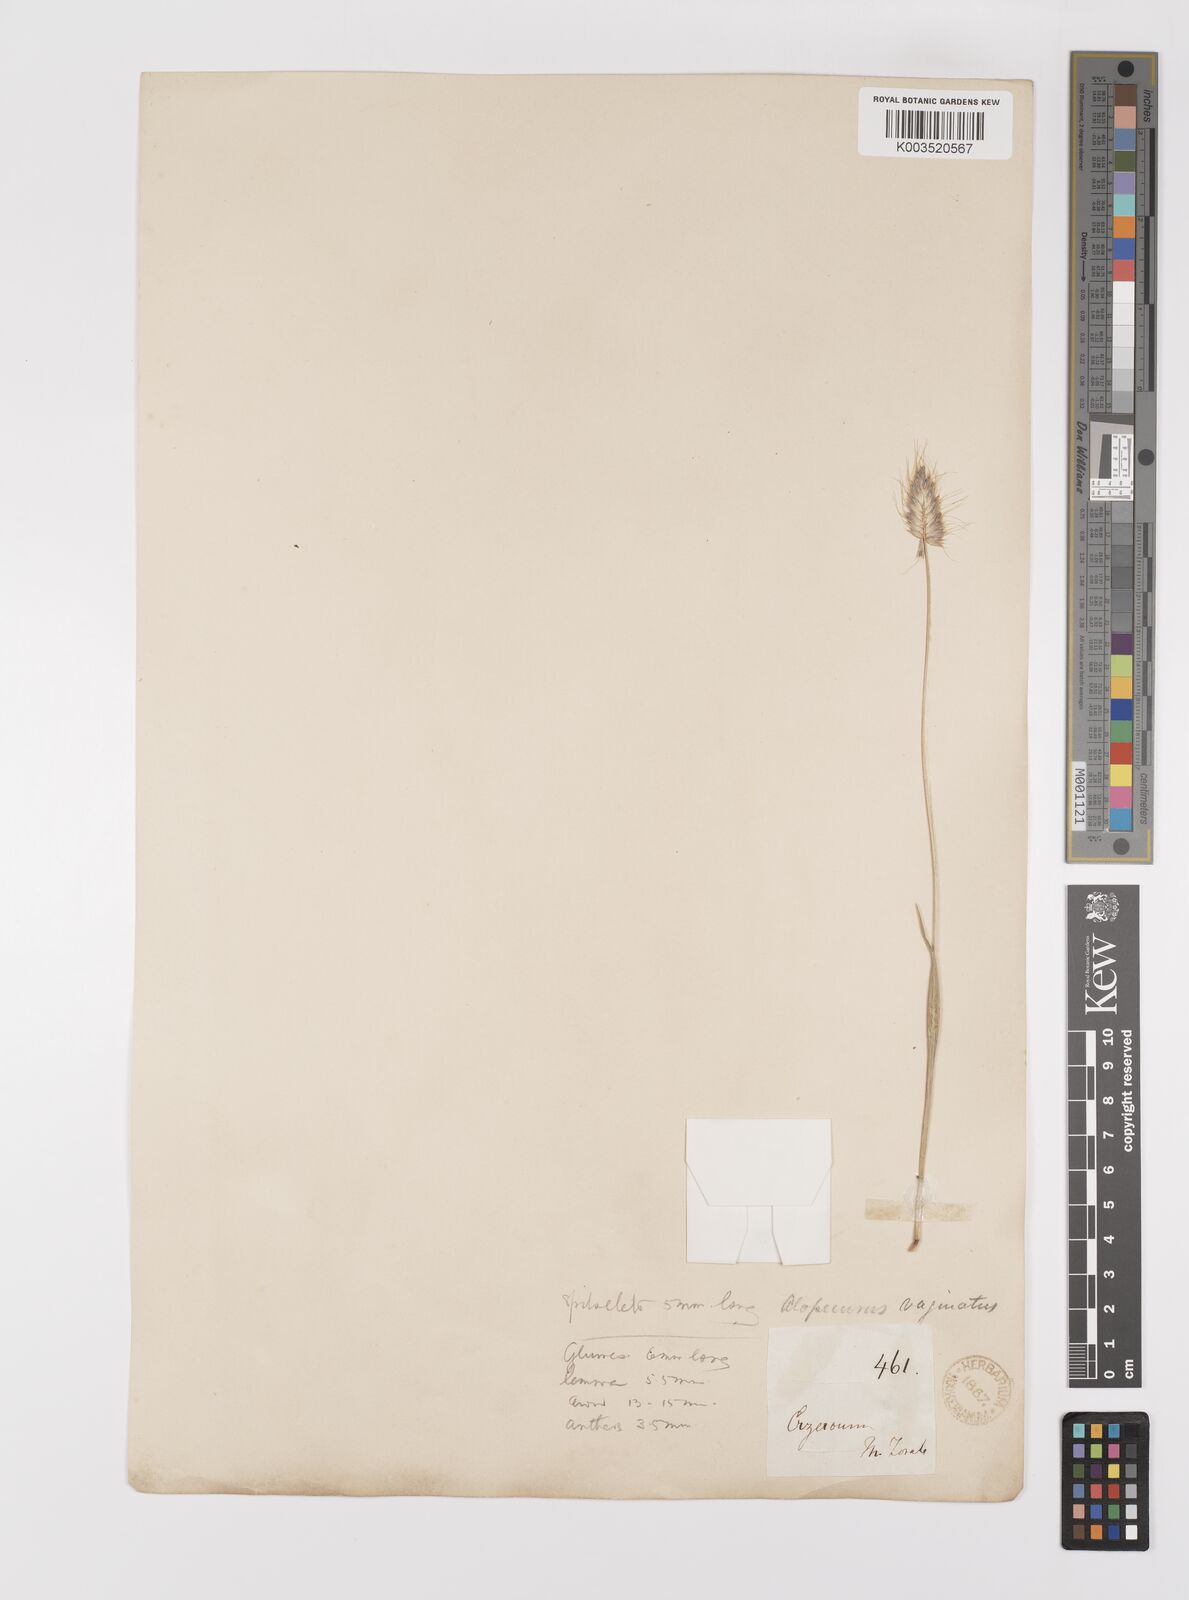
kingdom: Plantae
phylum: Tracheophyta
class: Liliopsida
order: Poales
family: Poaceae
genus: Alopecurus
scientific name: Alopecurus textilis
